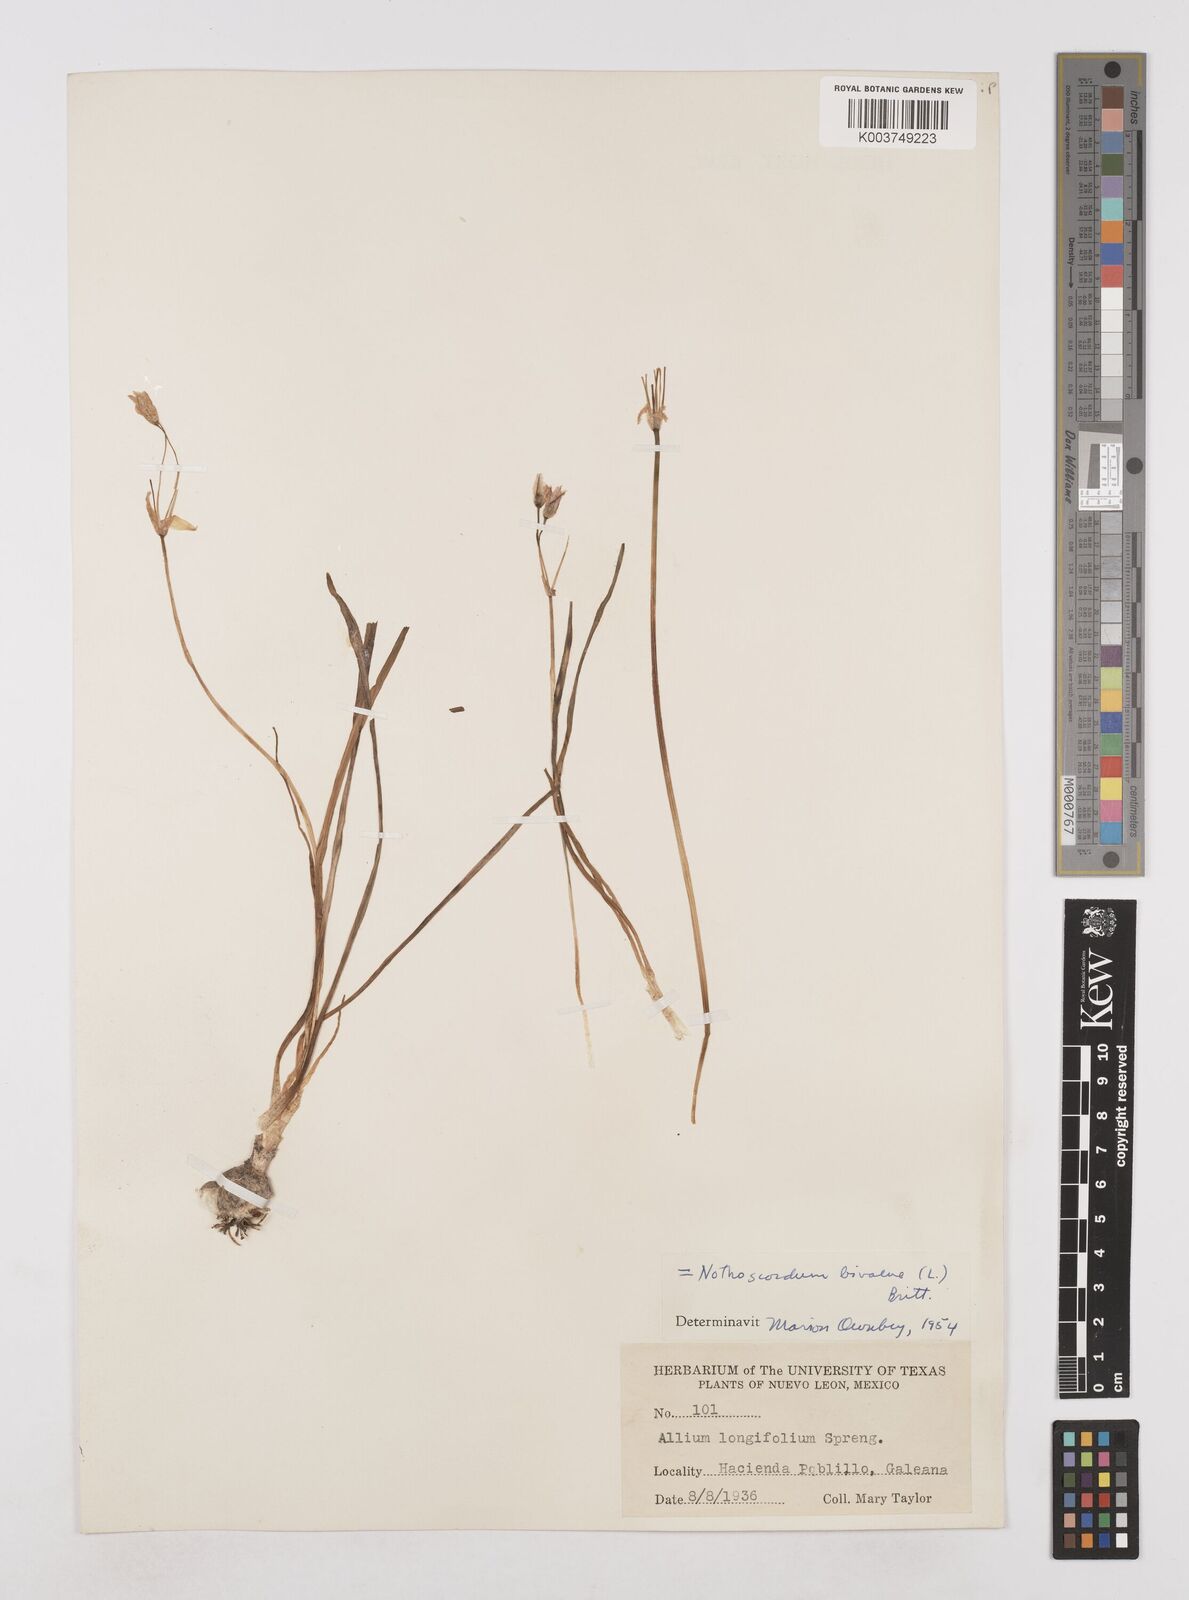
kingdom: Plantae
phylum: Tracheophyta
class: Liliopsida
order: Asparagales
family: Amaryllidaceae
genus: Nothoscordum
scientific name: Nothoscordum bivalve
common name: Crow-poison
